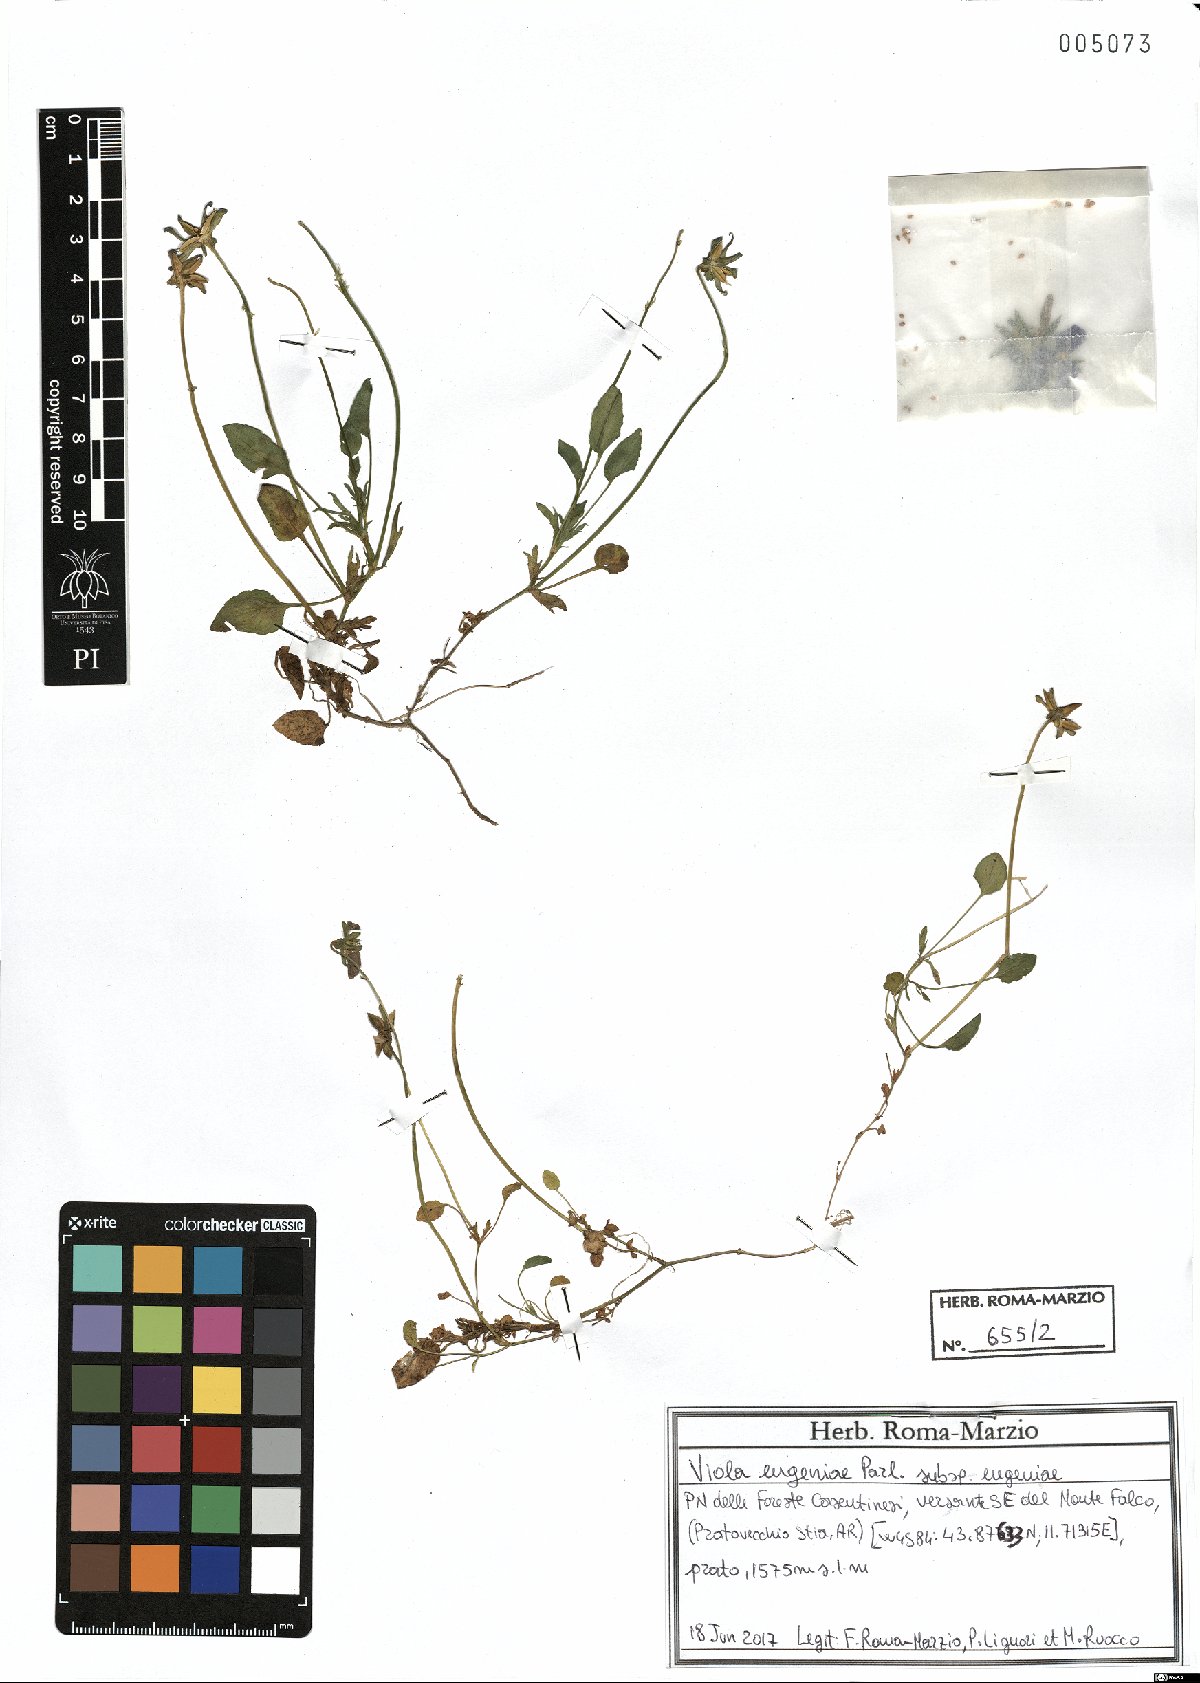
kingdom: Plantae
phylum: Tracheophyta
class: Magnoliopsida
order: Malpighiales
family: Violaceae
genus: Viola
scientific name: Viola eugeniae
